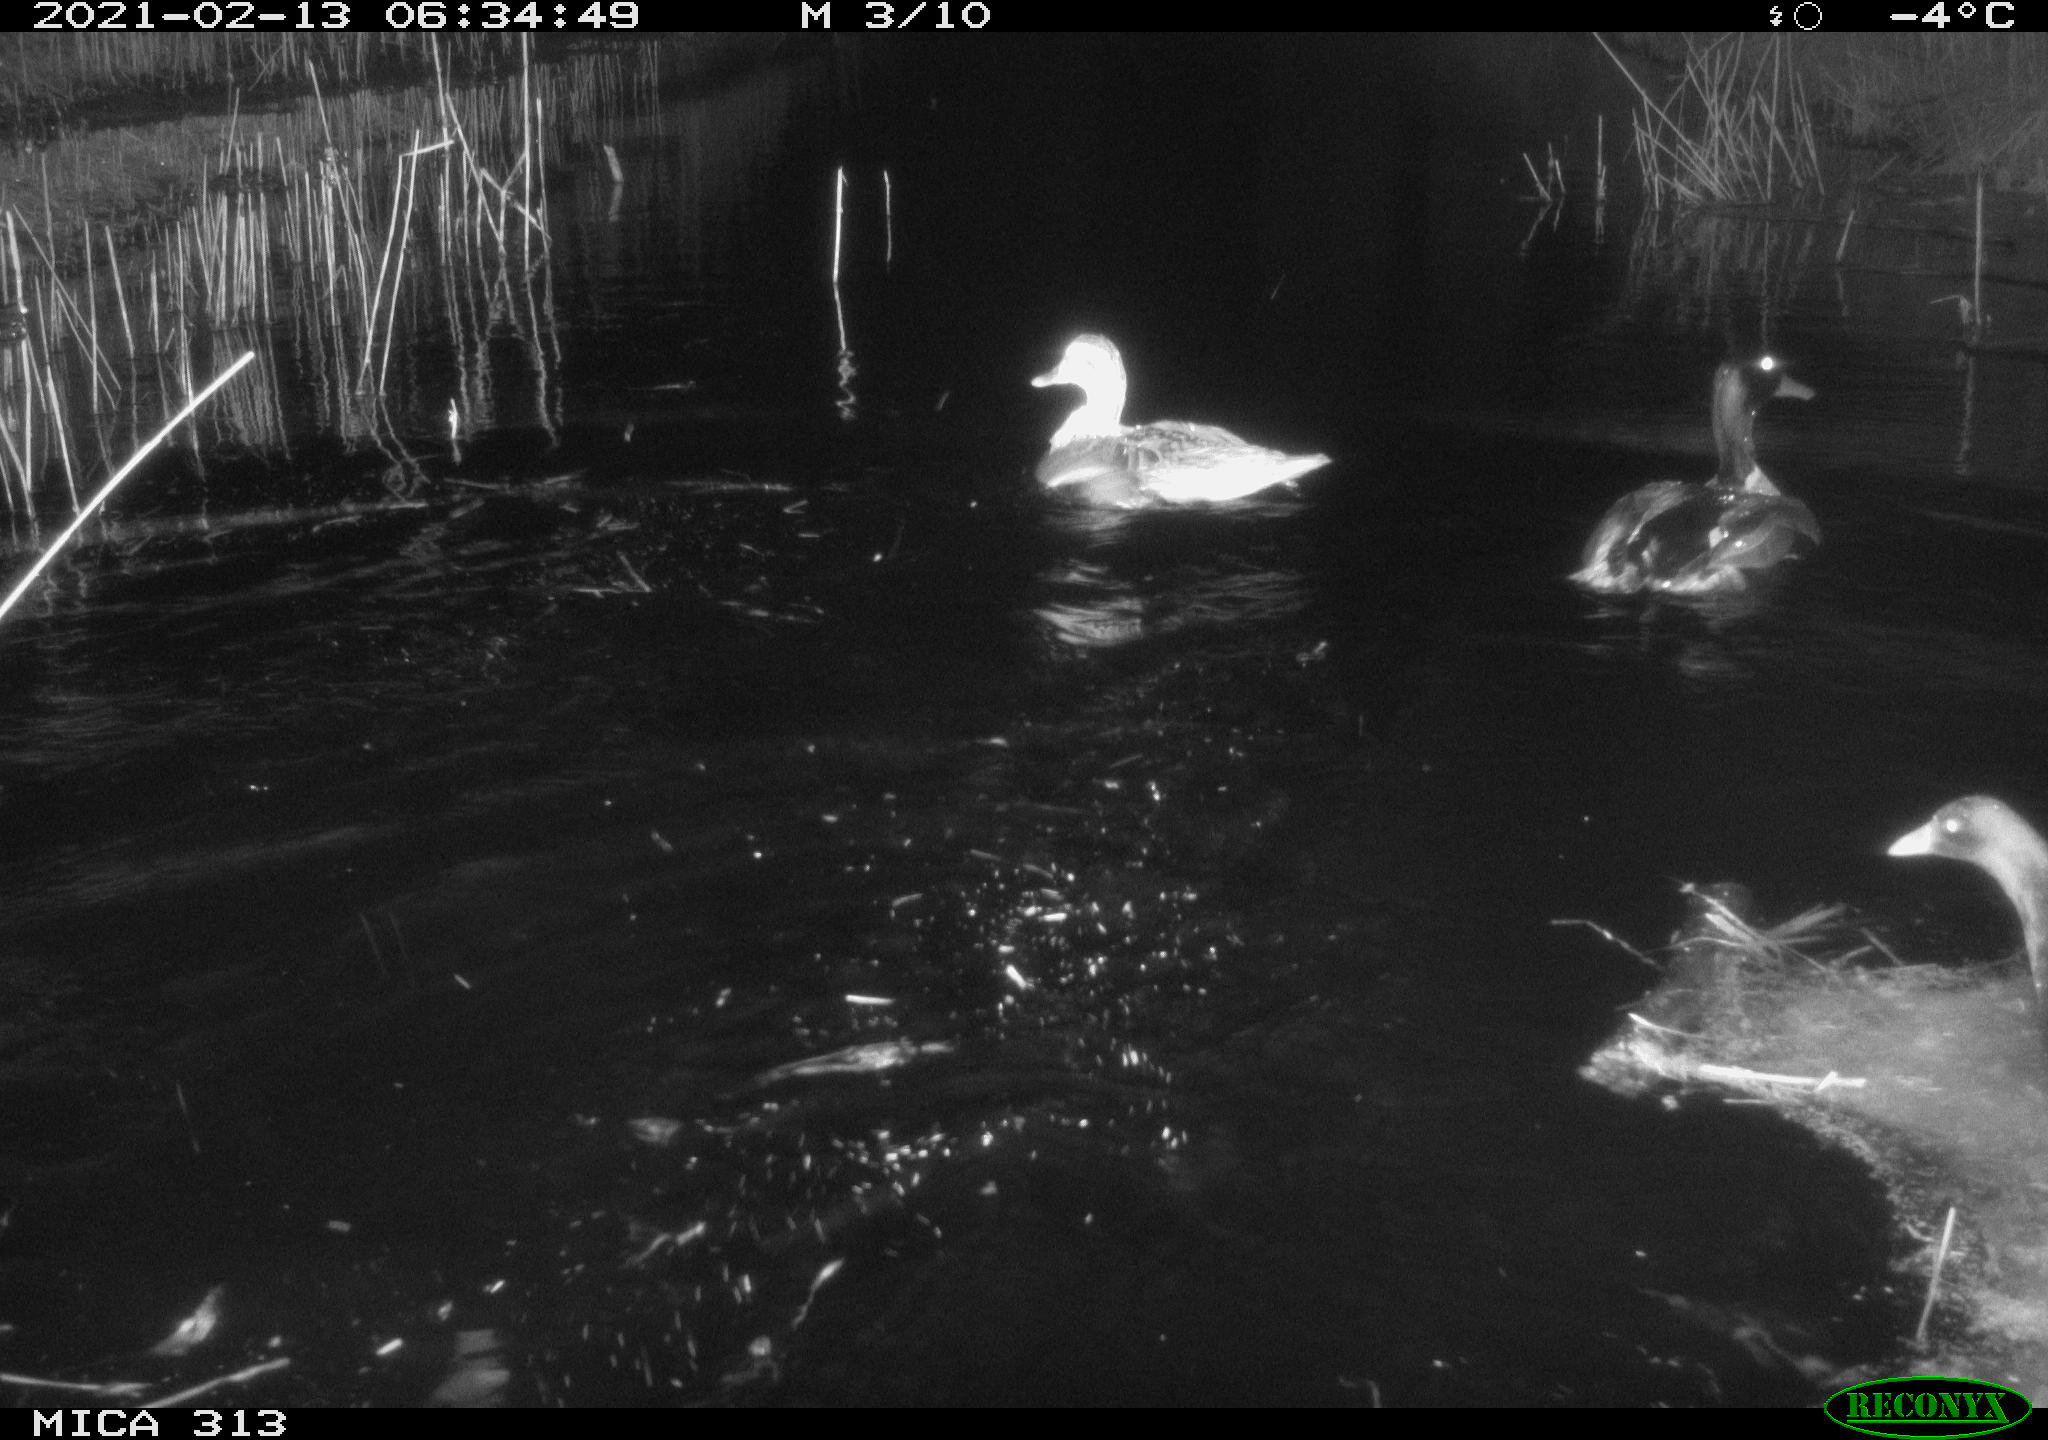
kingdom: Animalia
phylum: Chordata
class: Aves
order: Anseriformes
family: Anatidae
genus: Anas
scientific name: Anas
